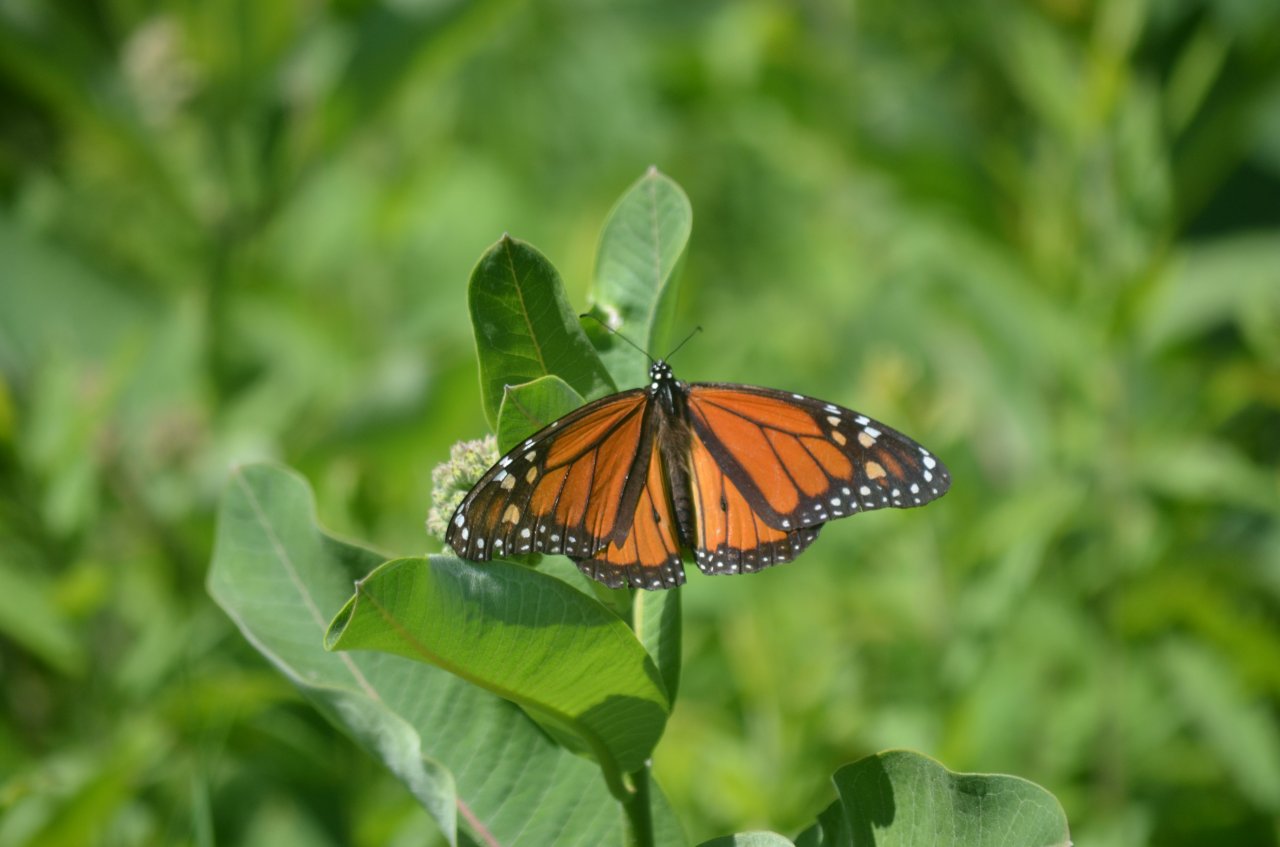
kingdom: Animalia
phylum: Arthropoda
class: Insecta
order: Lepidoptera
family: Nymphalidae
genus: Danaus
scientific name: Danaus plexippus
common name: Monarch
